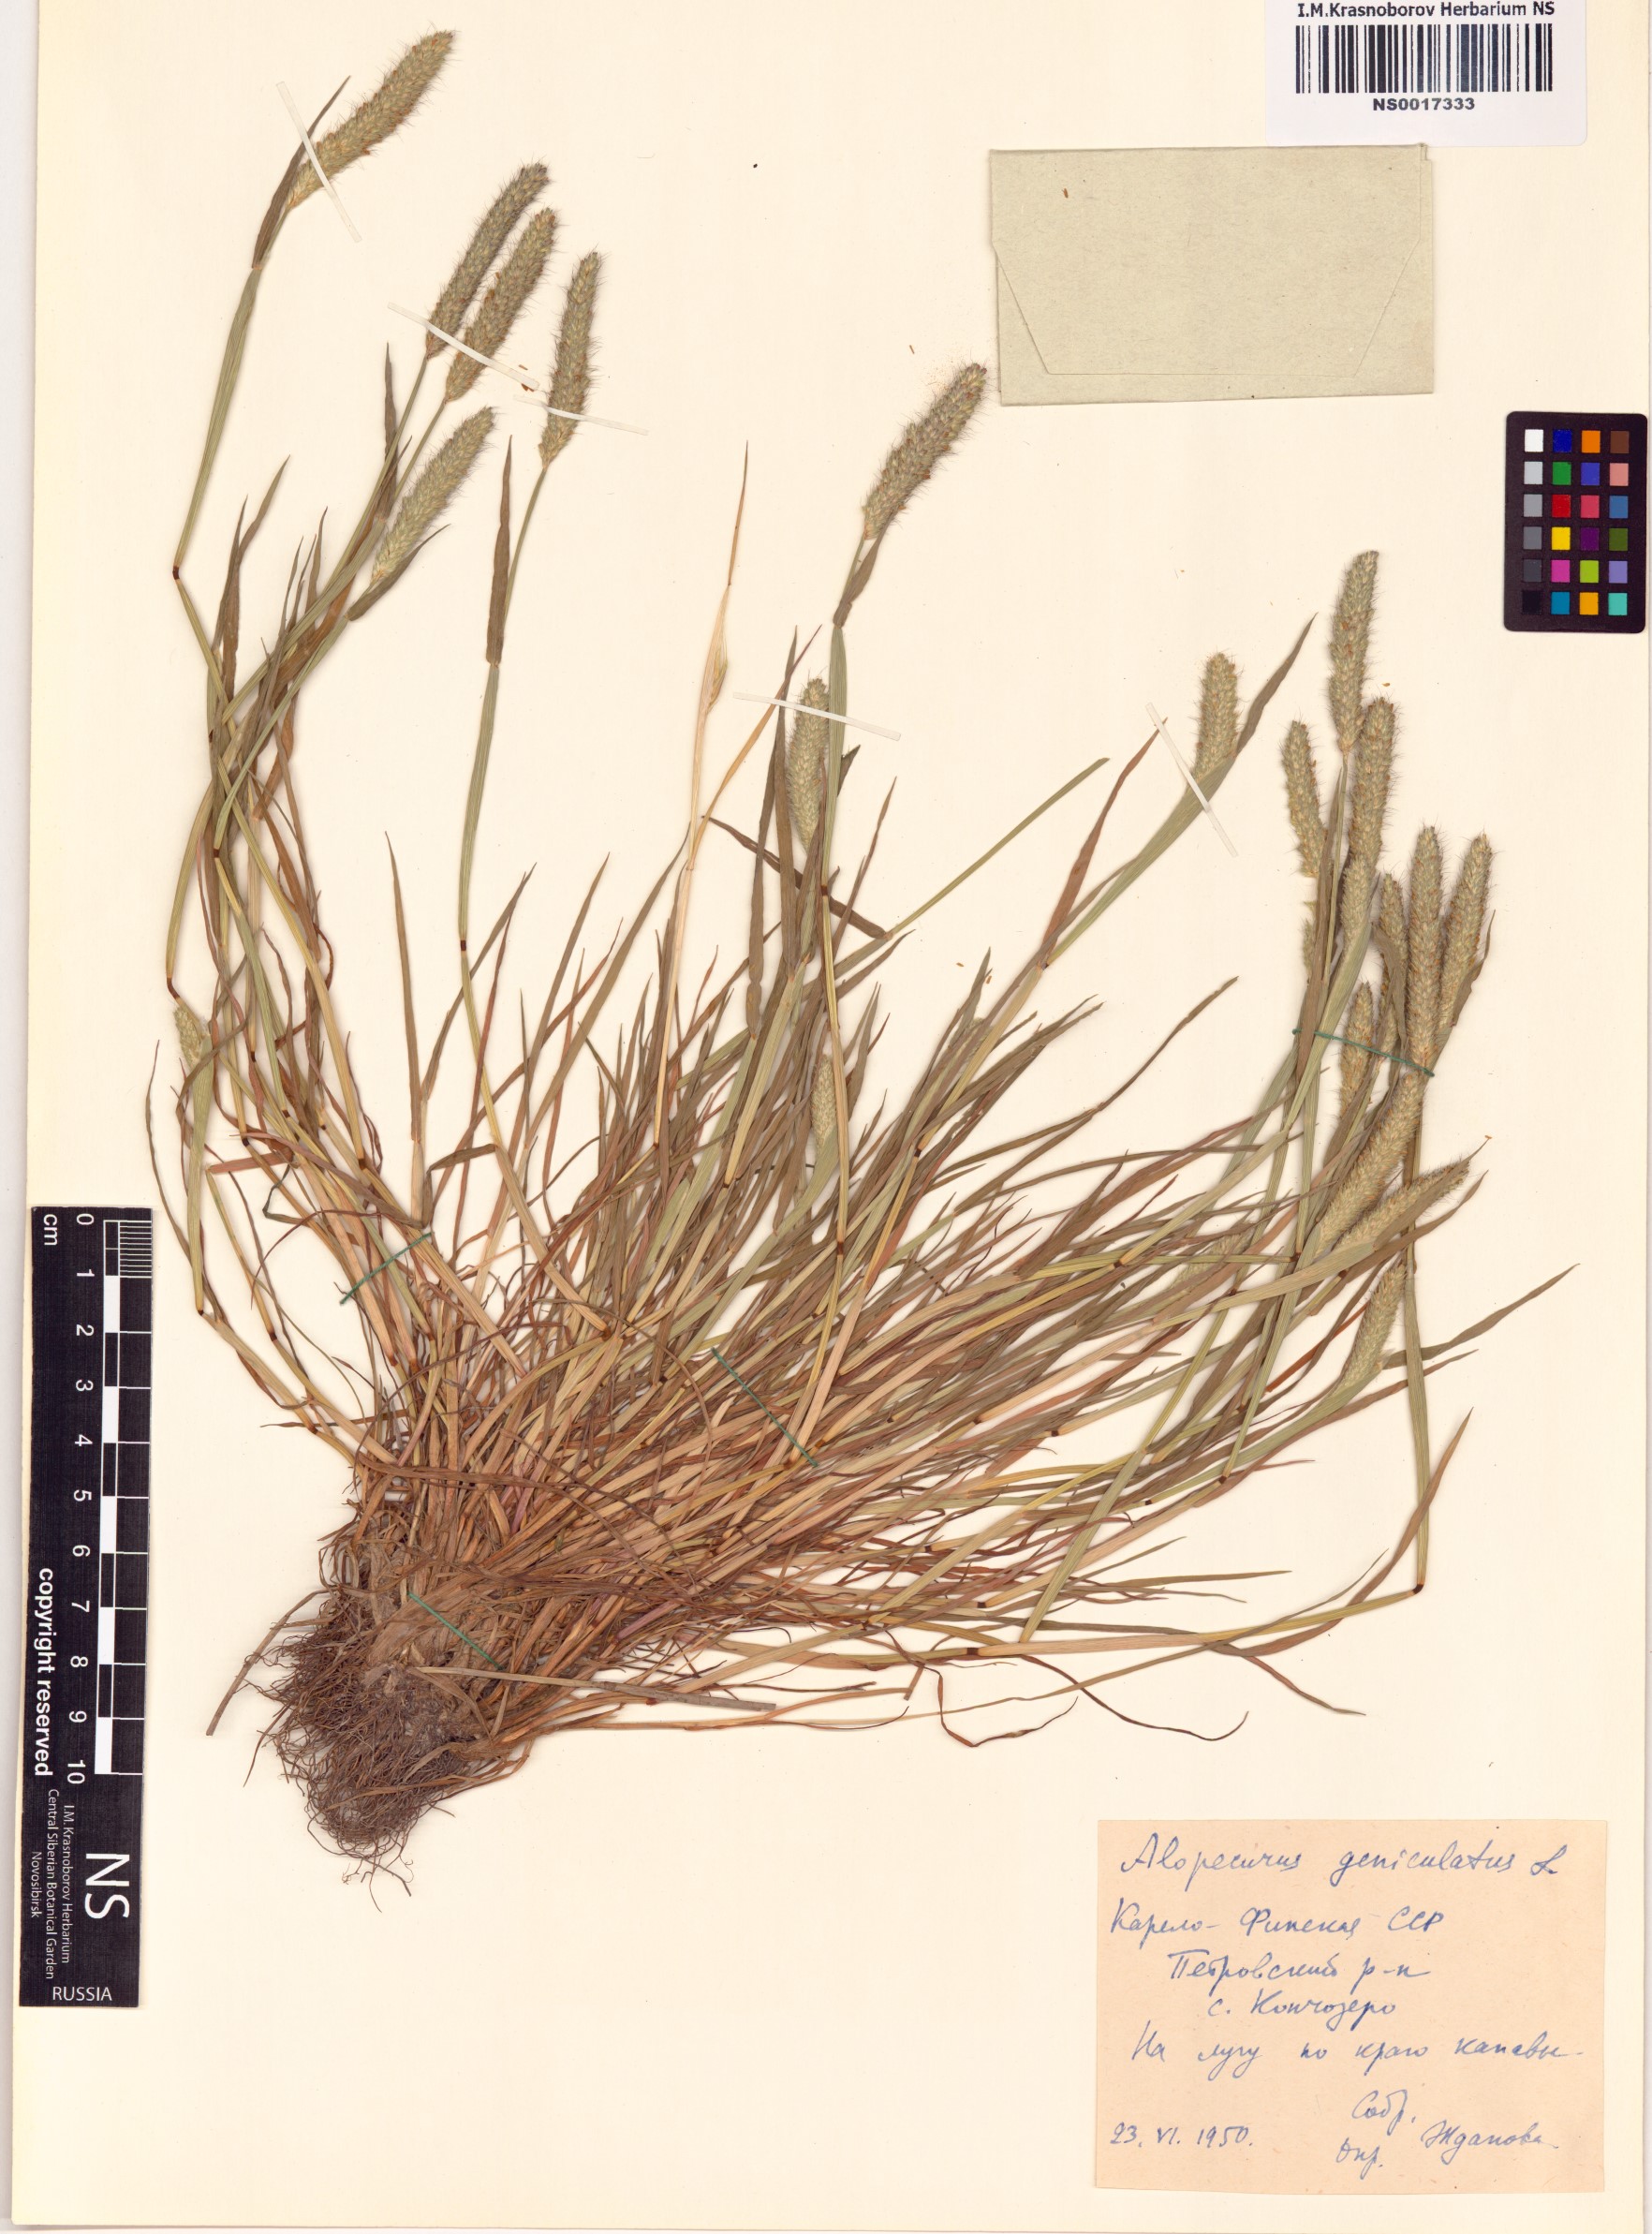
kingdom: Plantae
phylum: Tracheophyta
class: Liliopsida
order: Poales
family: Poaceae
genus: Alopecurus
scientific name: Alopecurus geniculatus
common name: Water foxtail
